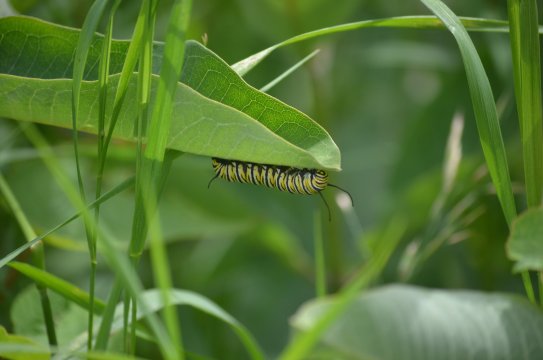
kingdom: Animalia
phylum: Arthropoda
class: Insecta
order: Lepidoptera
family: Nymphalidae
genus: Danaus
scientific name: Danaus plexippus
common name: Monarch
